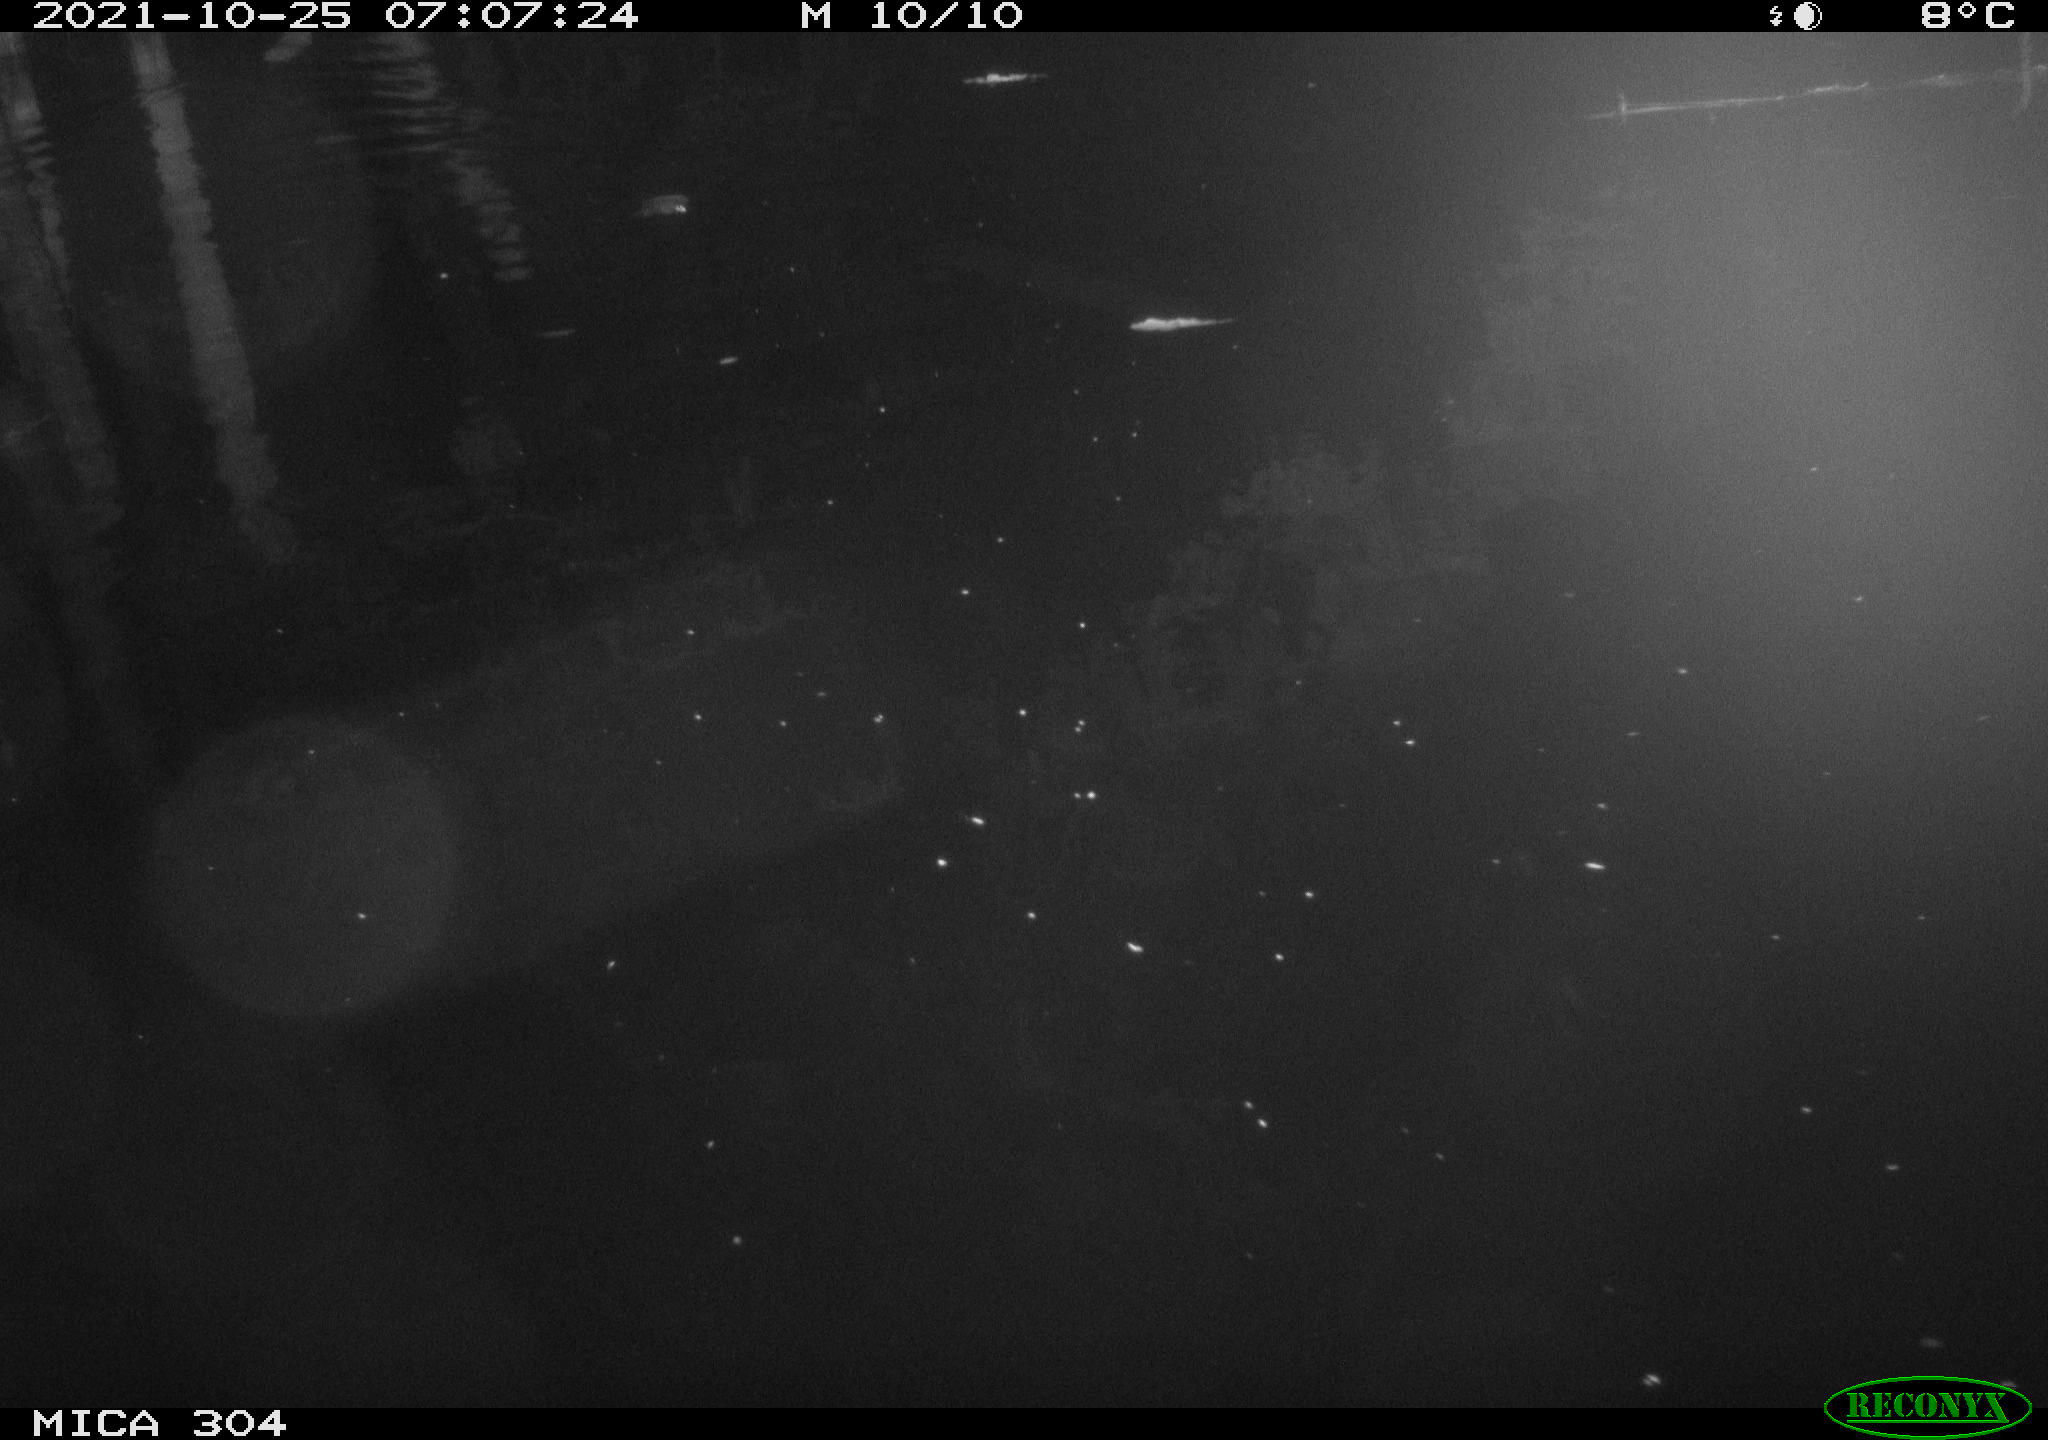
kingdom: Animalia
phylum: Chordata
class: Mammalia
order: Rodentia
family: Muridae
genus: Rattus
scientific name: Rattus norvegicus
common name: Brown rat
